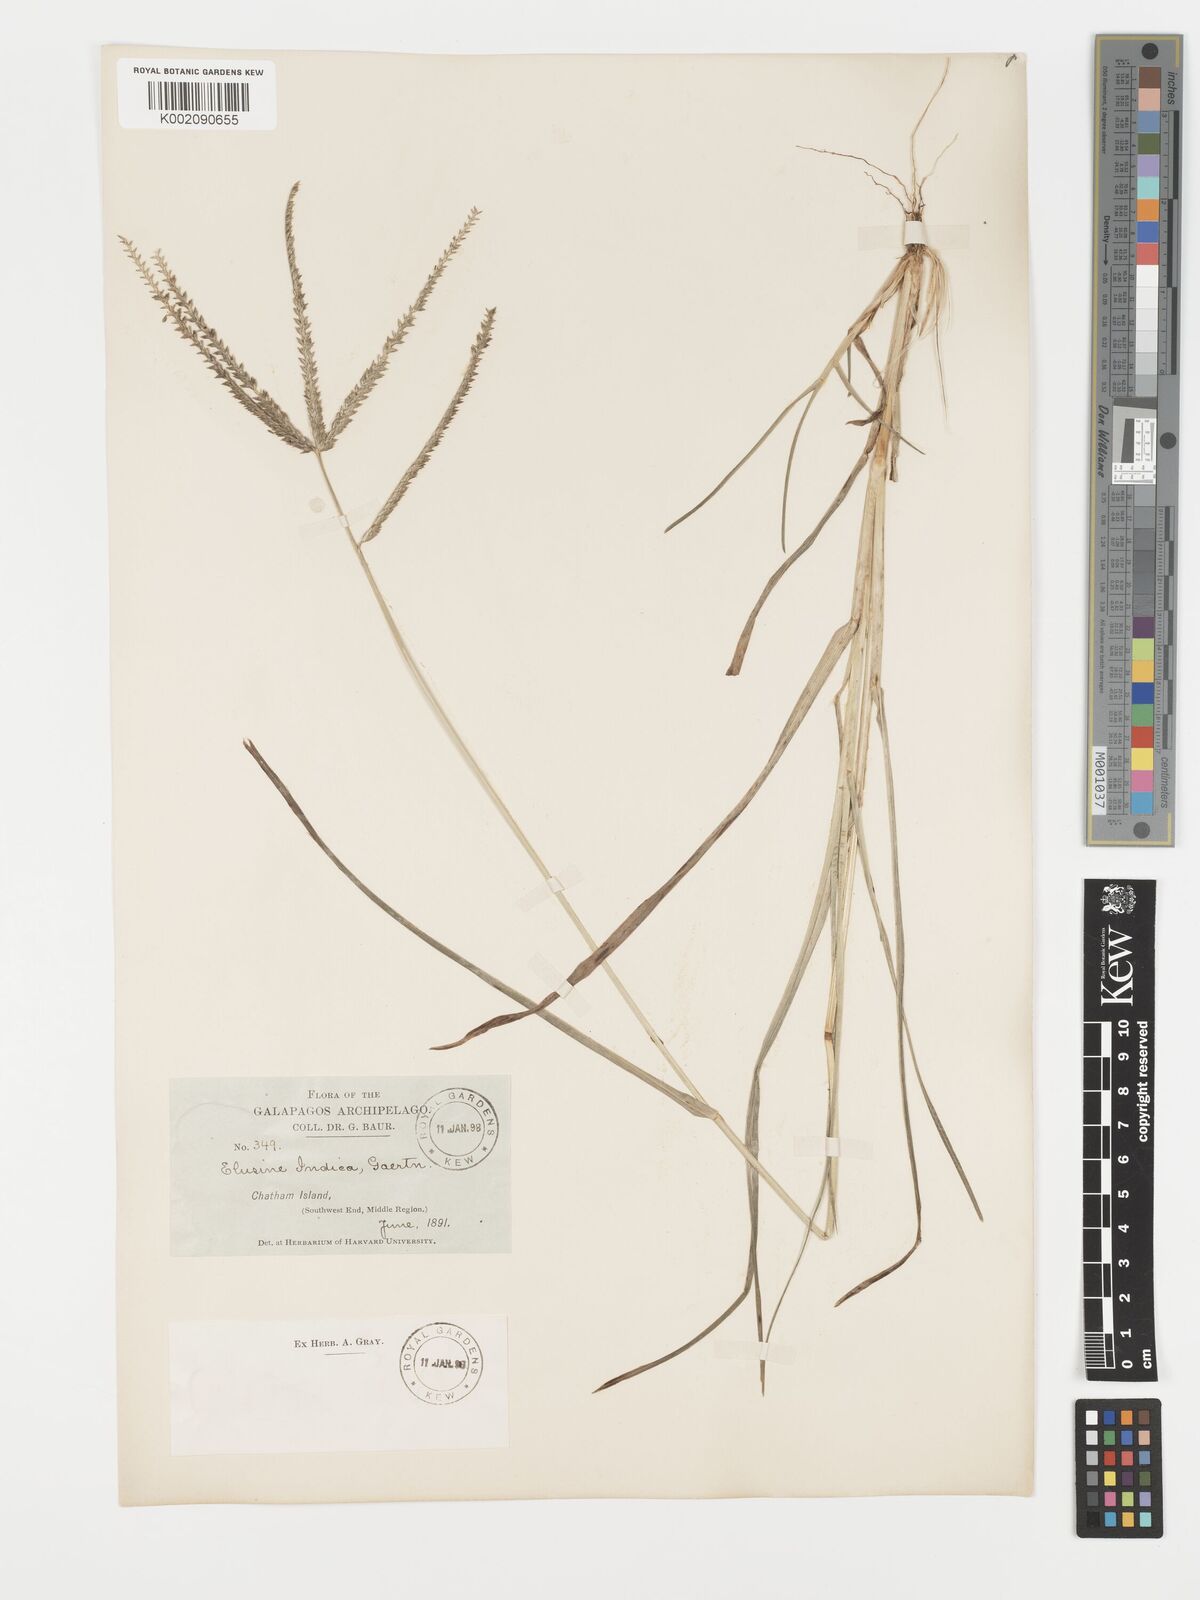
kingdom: Plantae
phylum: Tracheophyta
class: Liliopsida
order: Poales
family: Poaceae
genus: Eleusine
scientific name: Eleusine indica
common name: Yard-grass
